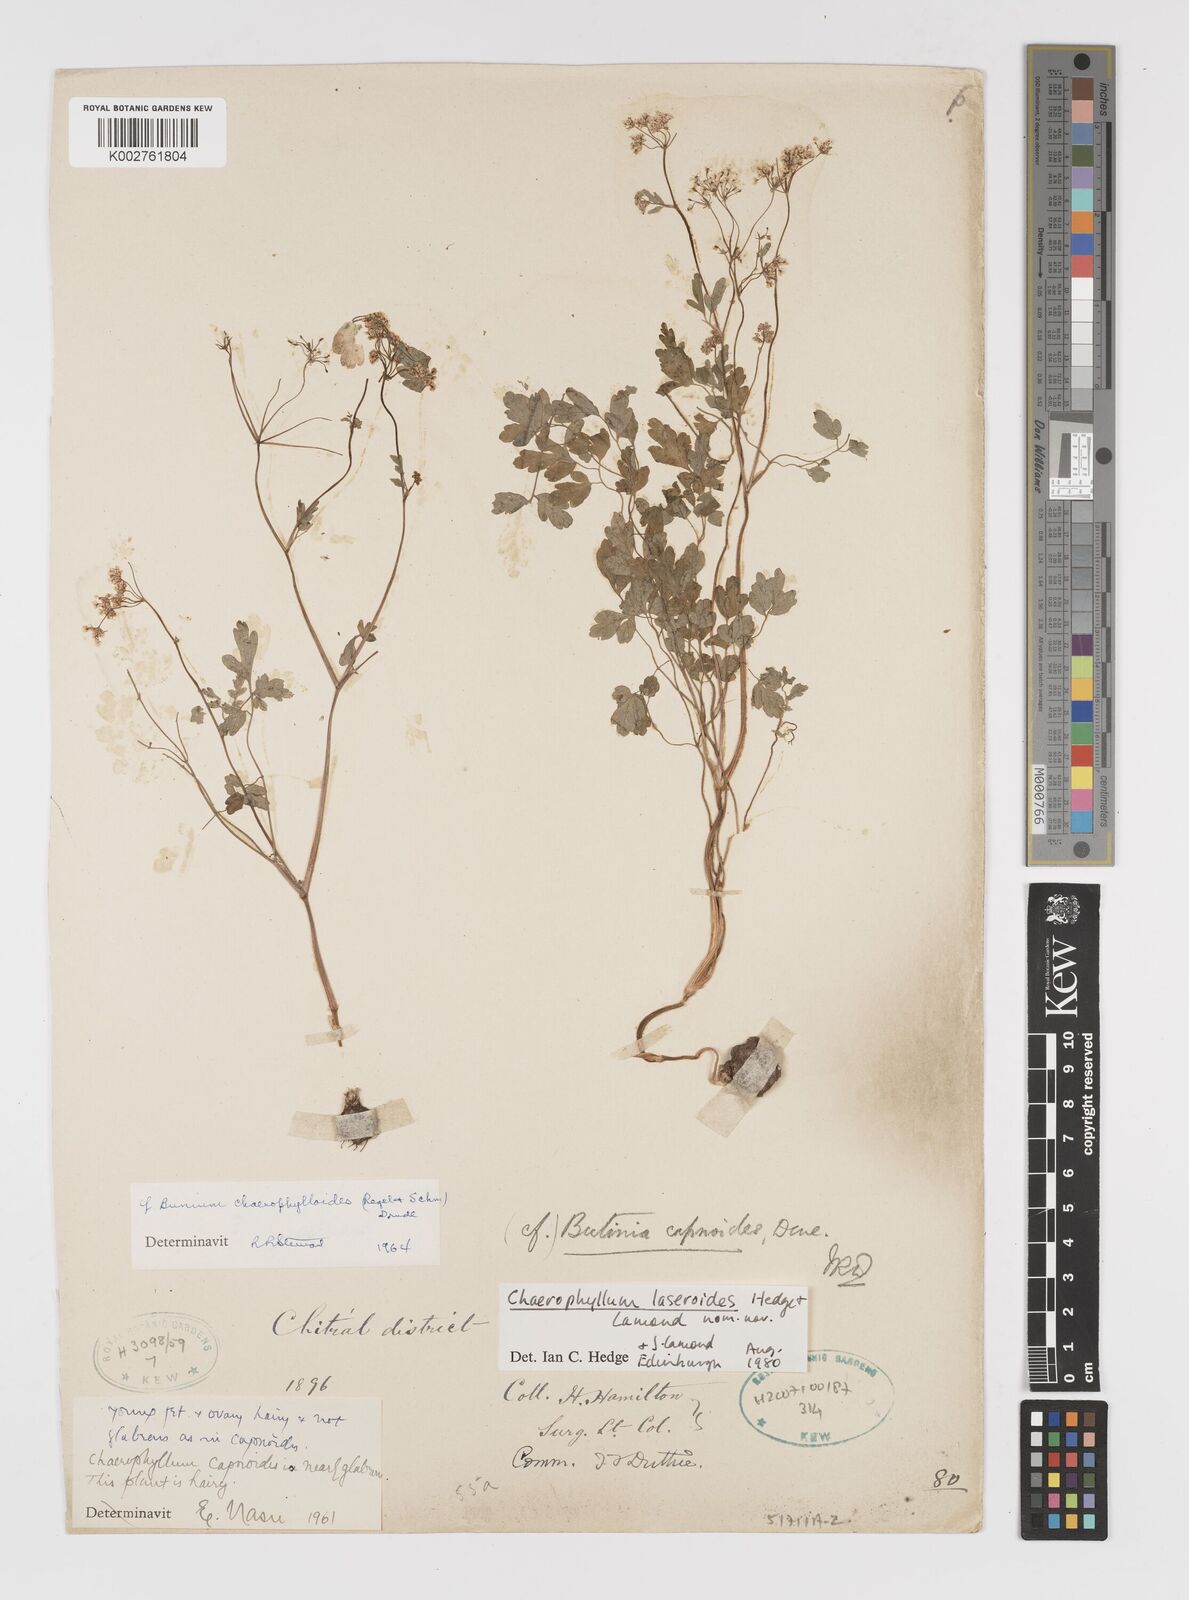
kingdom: Plantae
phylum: Tracheophyta
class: Magnoliopsida
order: Apiales
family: Apiaceae
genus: Kozlovia
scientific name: Kozlovia laseroides
